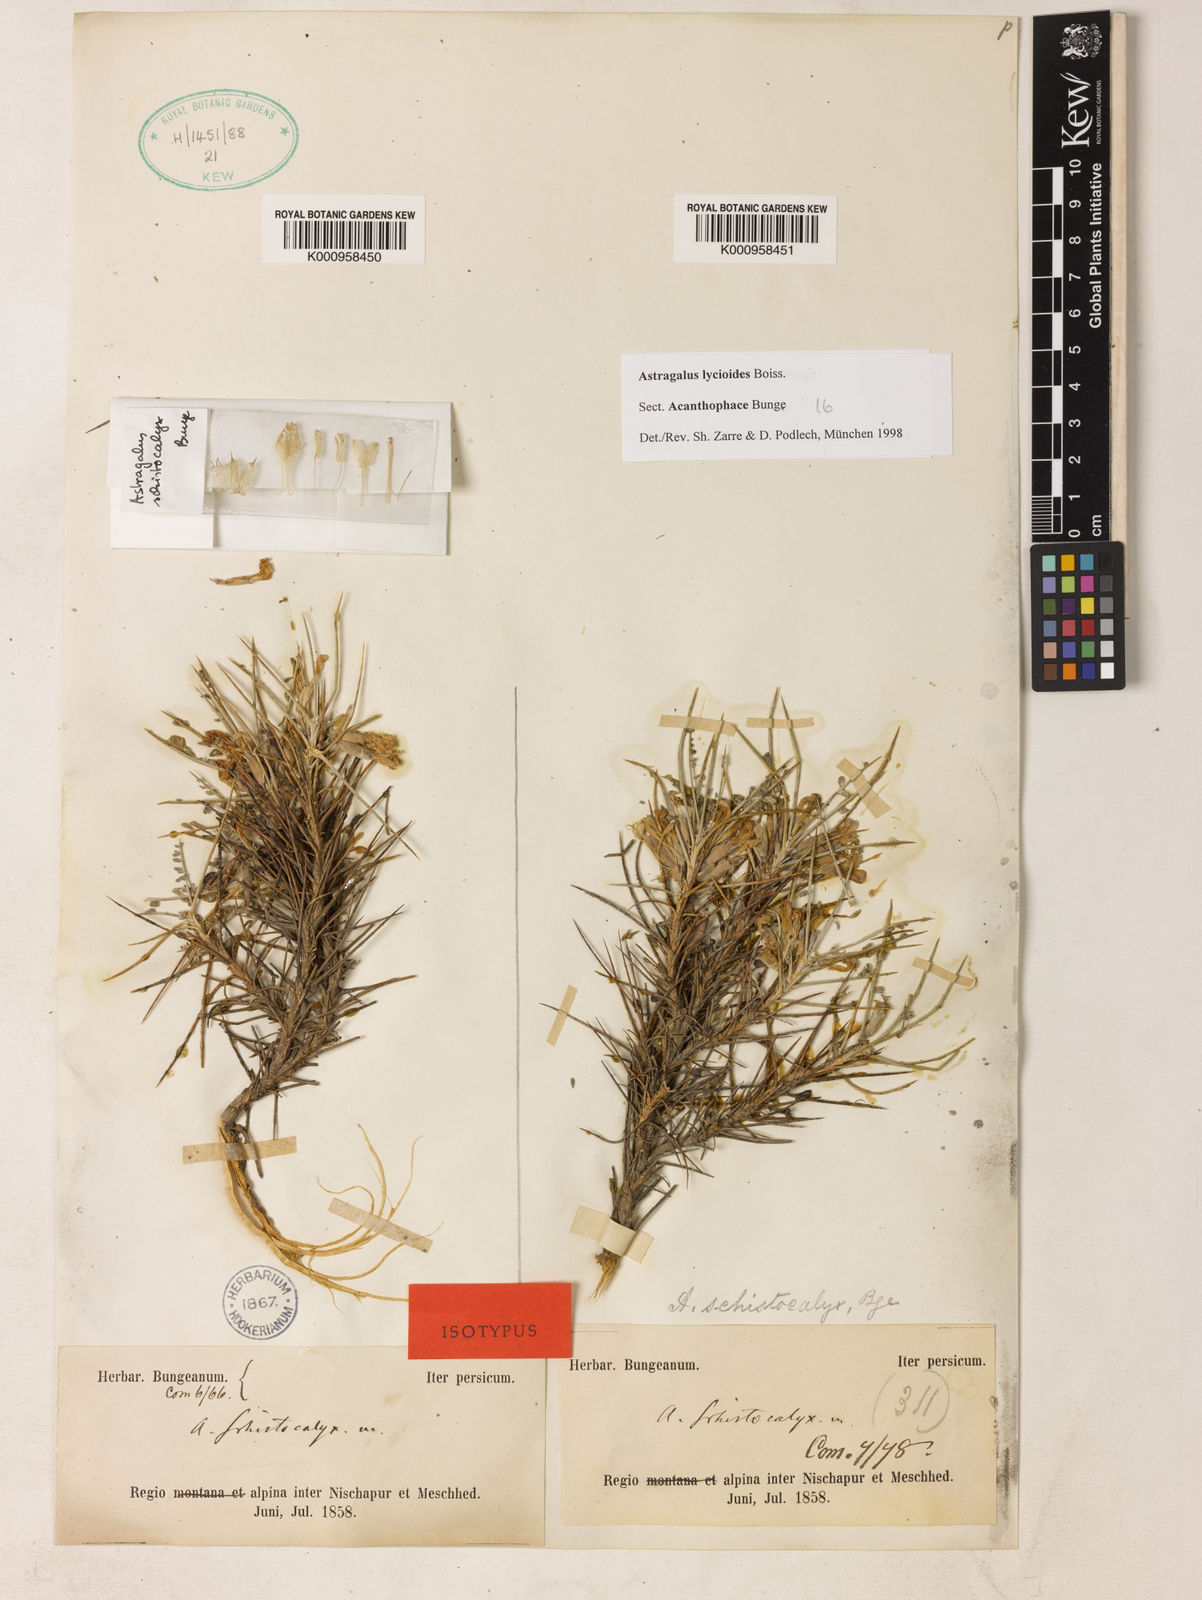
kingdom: Plantae
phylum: Tracheophyta
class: Magnoliopsida
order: Fabales
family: Fabaceae
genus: Astragalus
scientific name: Astragalus
